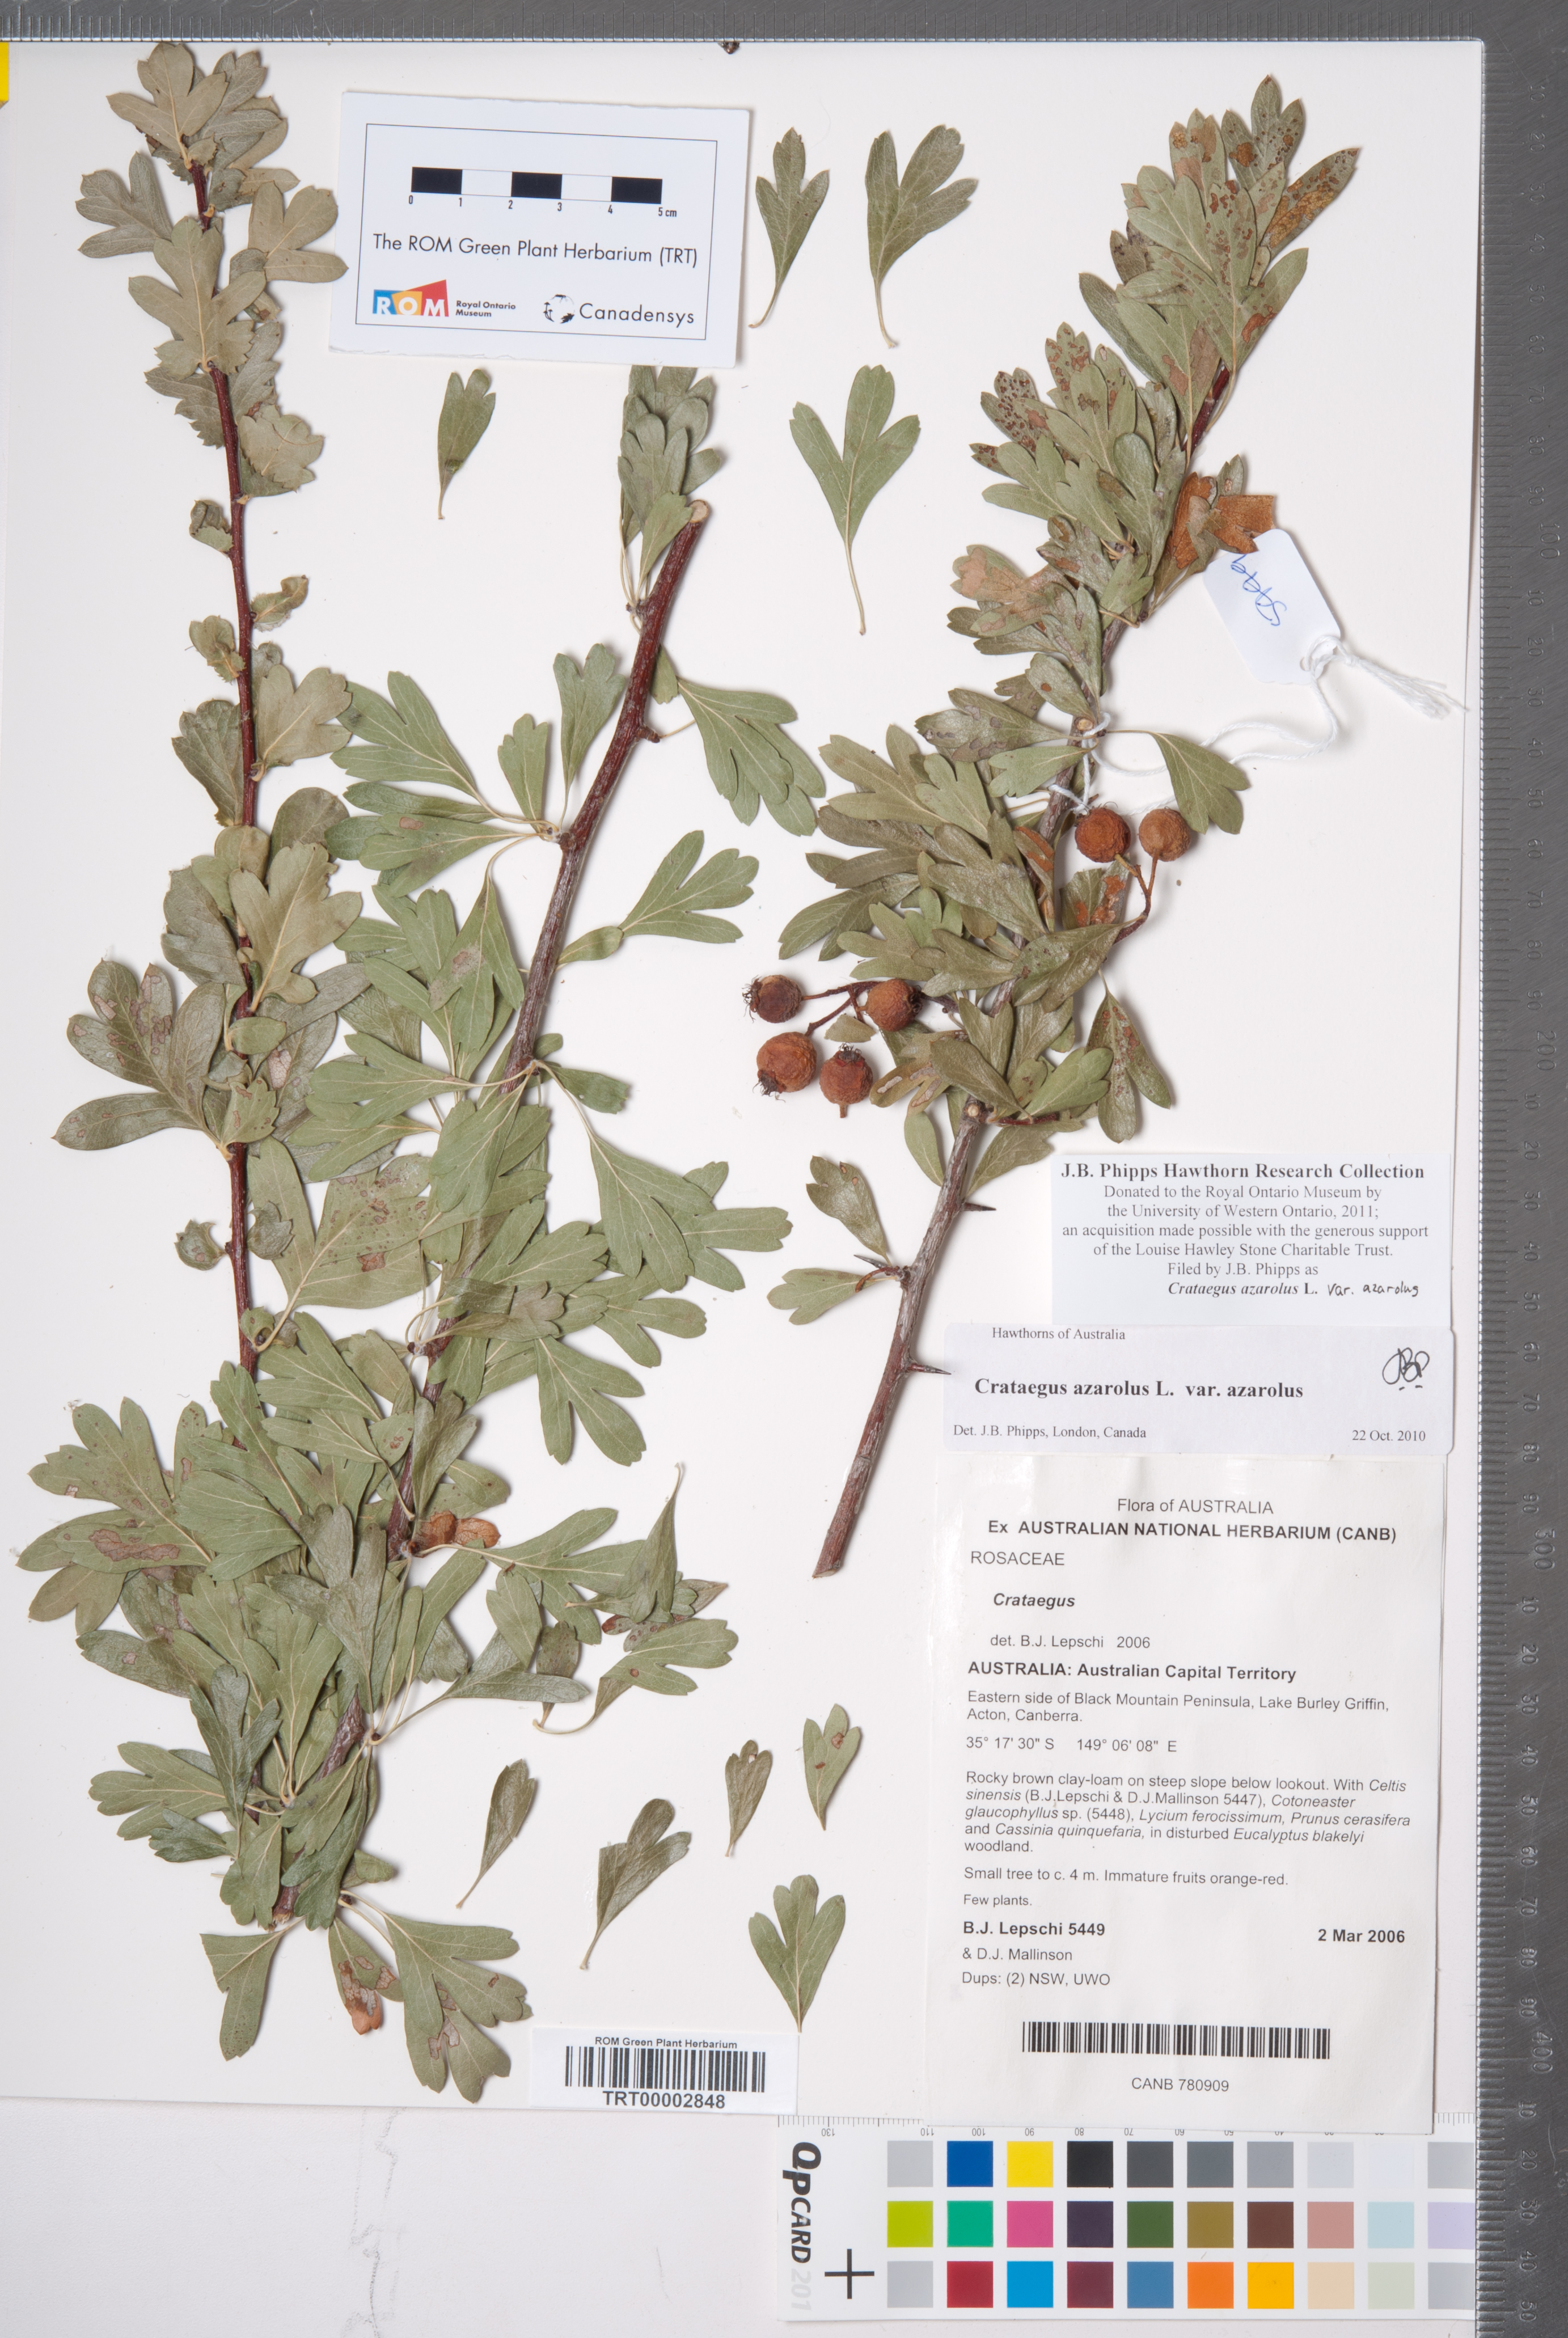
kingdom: Plantae
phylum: Tracheophyta
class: Magnoliopsida
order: Rosales
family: Rosaceae
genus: Crataegus
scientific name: Crataegus azarolus
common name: Azarole
